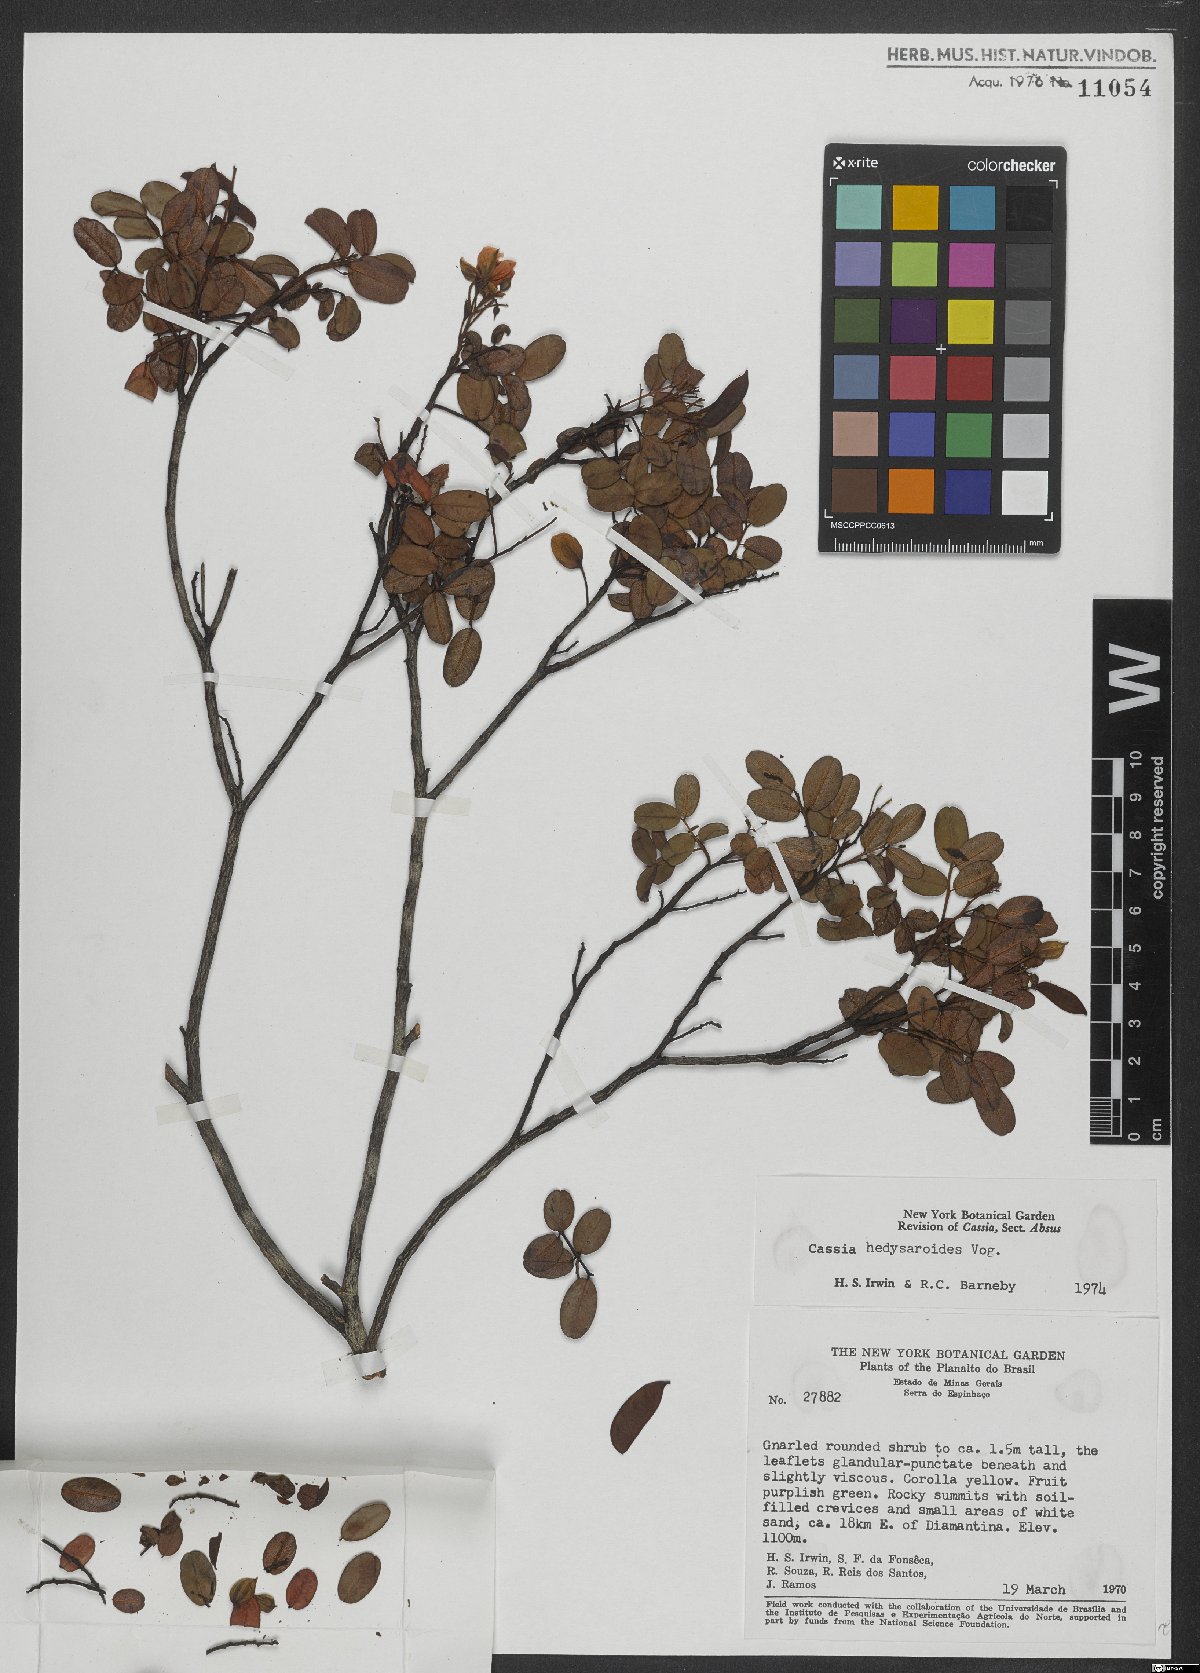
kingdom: Plantae
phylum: Tracheophyta
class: Magnoliopsida
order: Fabales
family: Fabaceae
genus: Chamaecrista
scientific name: Chamaecrista hedysaroides
